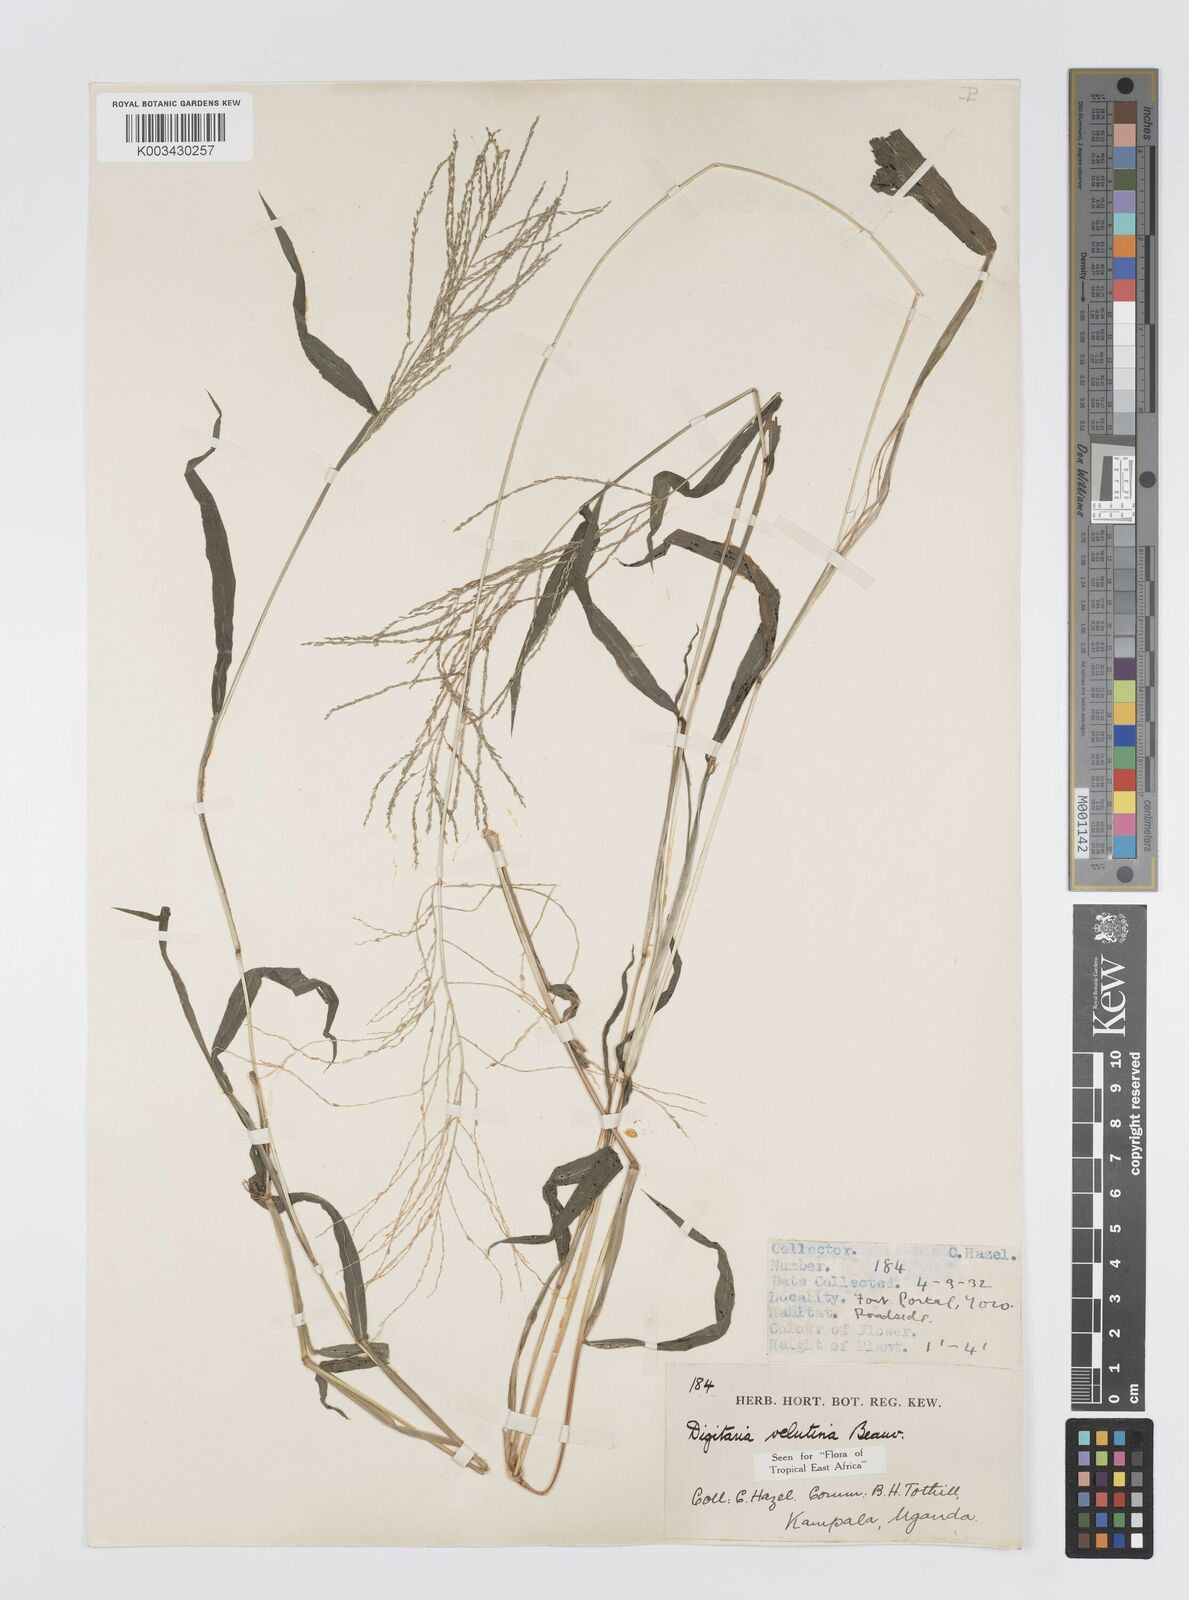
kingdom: Plantae
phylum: Tracheophyta
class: Liliopsida
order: Poales
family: Poaceae
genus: Digitaria
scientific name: Digitaria velutina
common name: Long-plume finger grass
